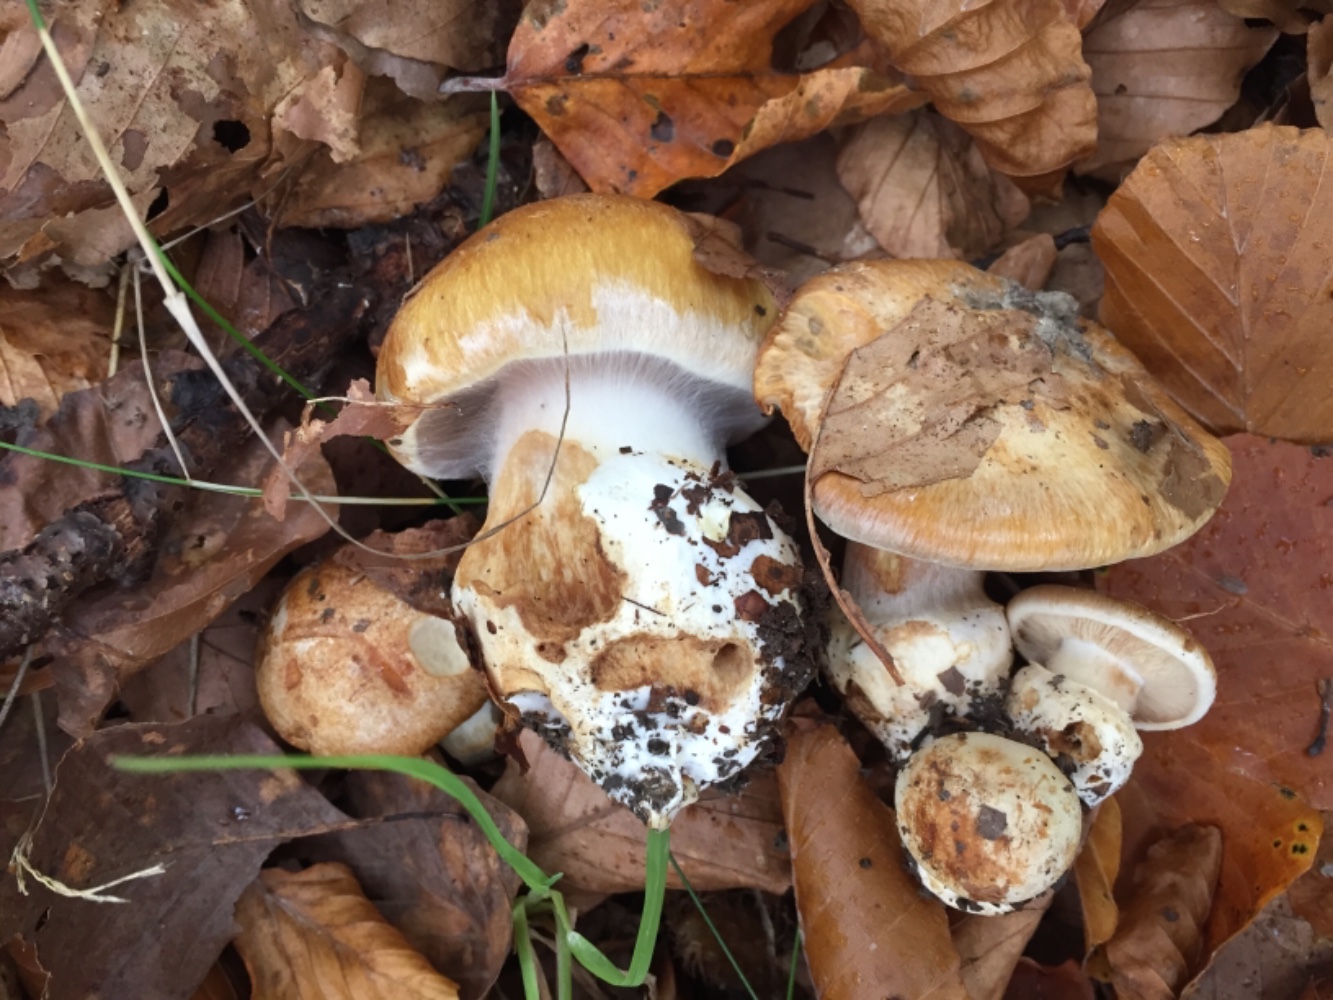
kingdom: Fungi
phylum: Basidiomycota
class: Agaricomycetes
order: Agaricales
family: Cortinariaceae
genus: Phlegmacium
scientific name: Phlegmacium subdecolorans
